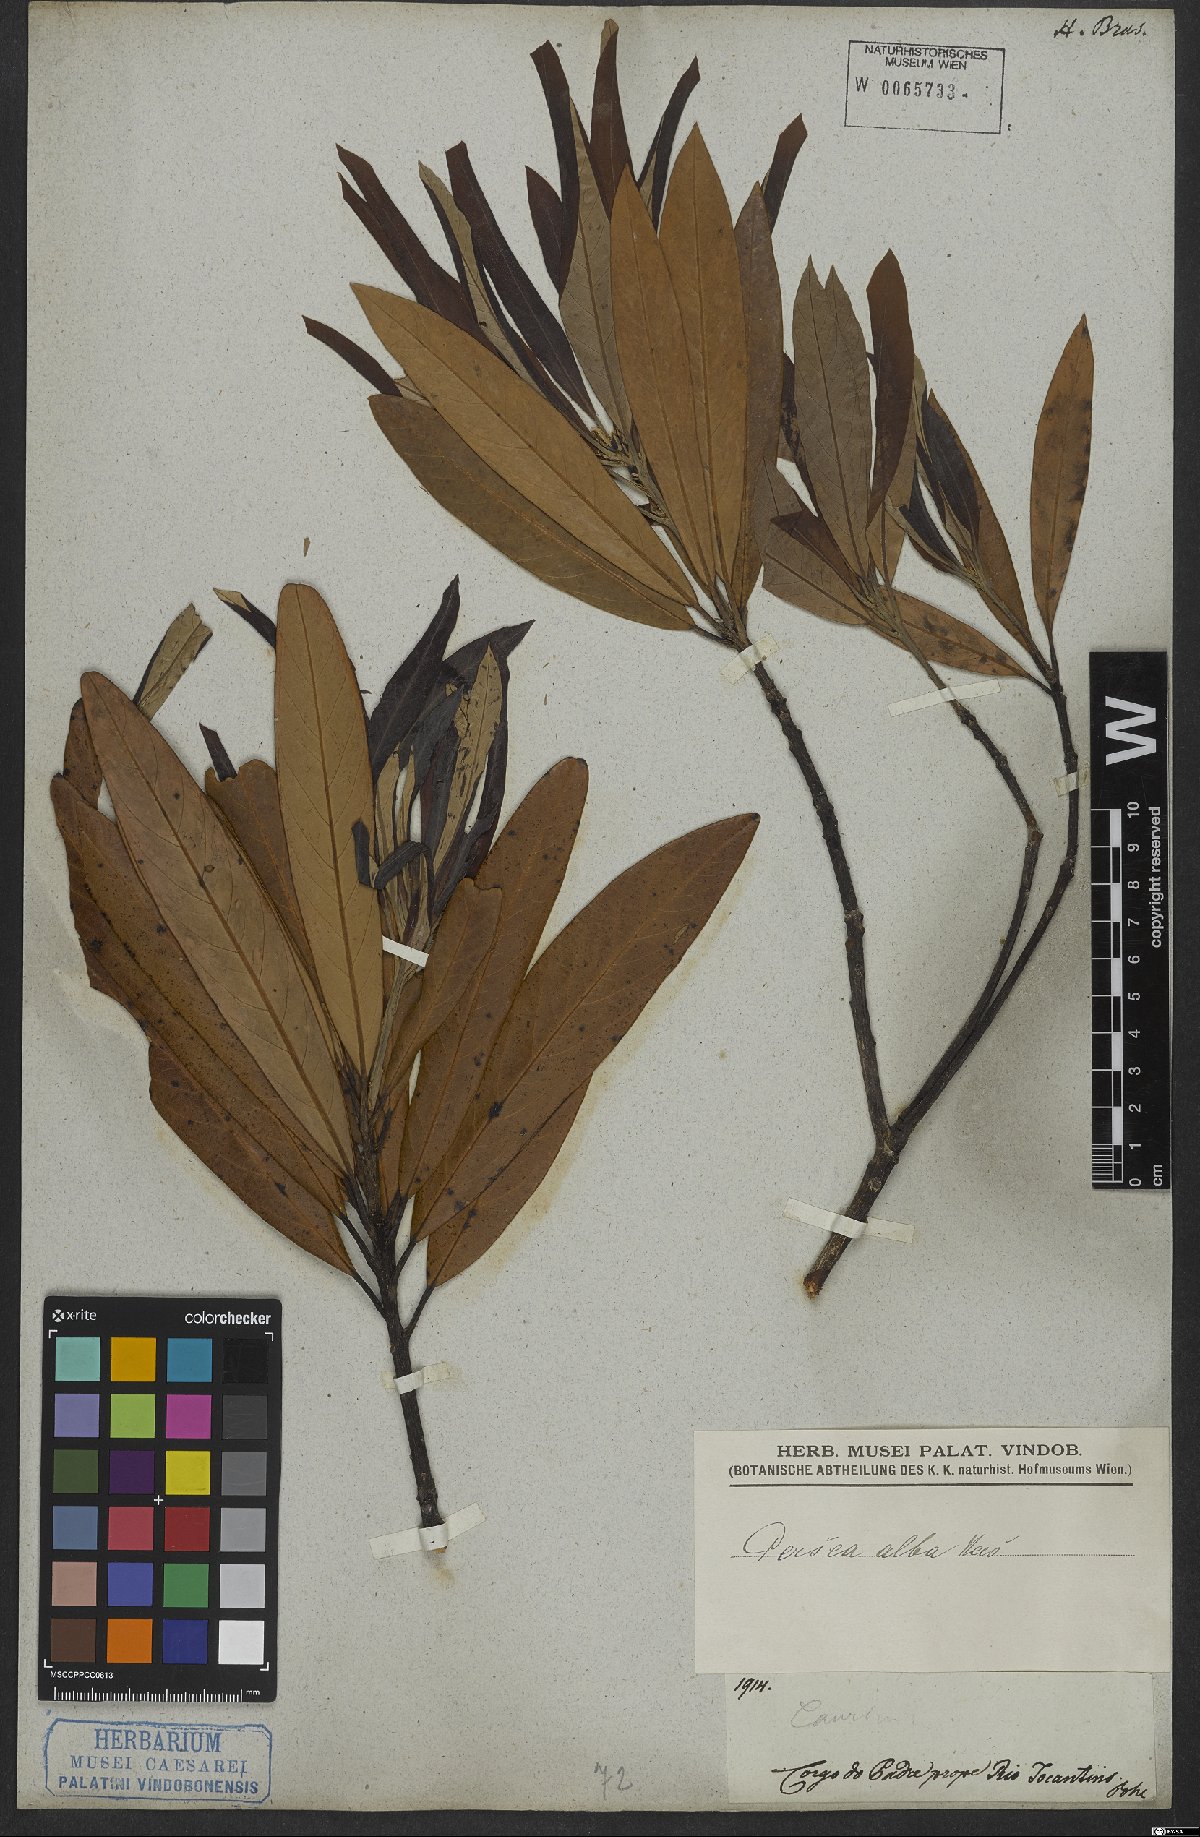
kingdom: Plantae
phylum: Tracheophyta
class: Magnoliopsida
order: Laurales
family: Lauraceae
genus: Persea
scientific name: Persea alba
